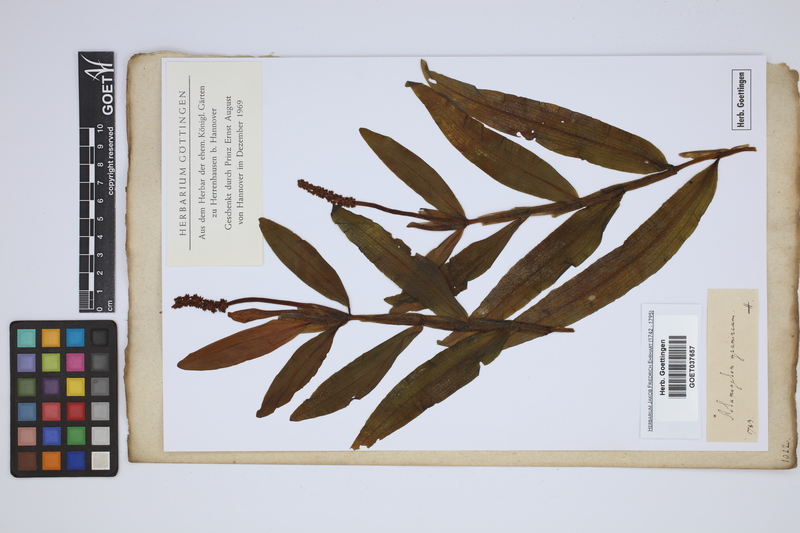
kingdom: Plantae
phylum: Tracheophyta
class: Liliopsida
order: Alismatales
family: Potamogetonaceae
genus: Potamogeton
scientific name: Potamogeton gramineus
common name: Various-leaved pondweed
